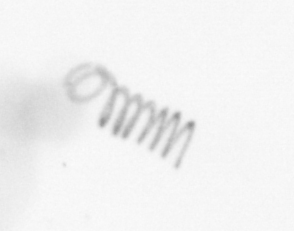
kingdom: Chromista
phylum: Ochrophyta
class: Bacillariophyceae
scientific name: Bacillariophyceae
